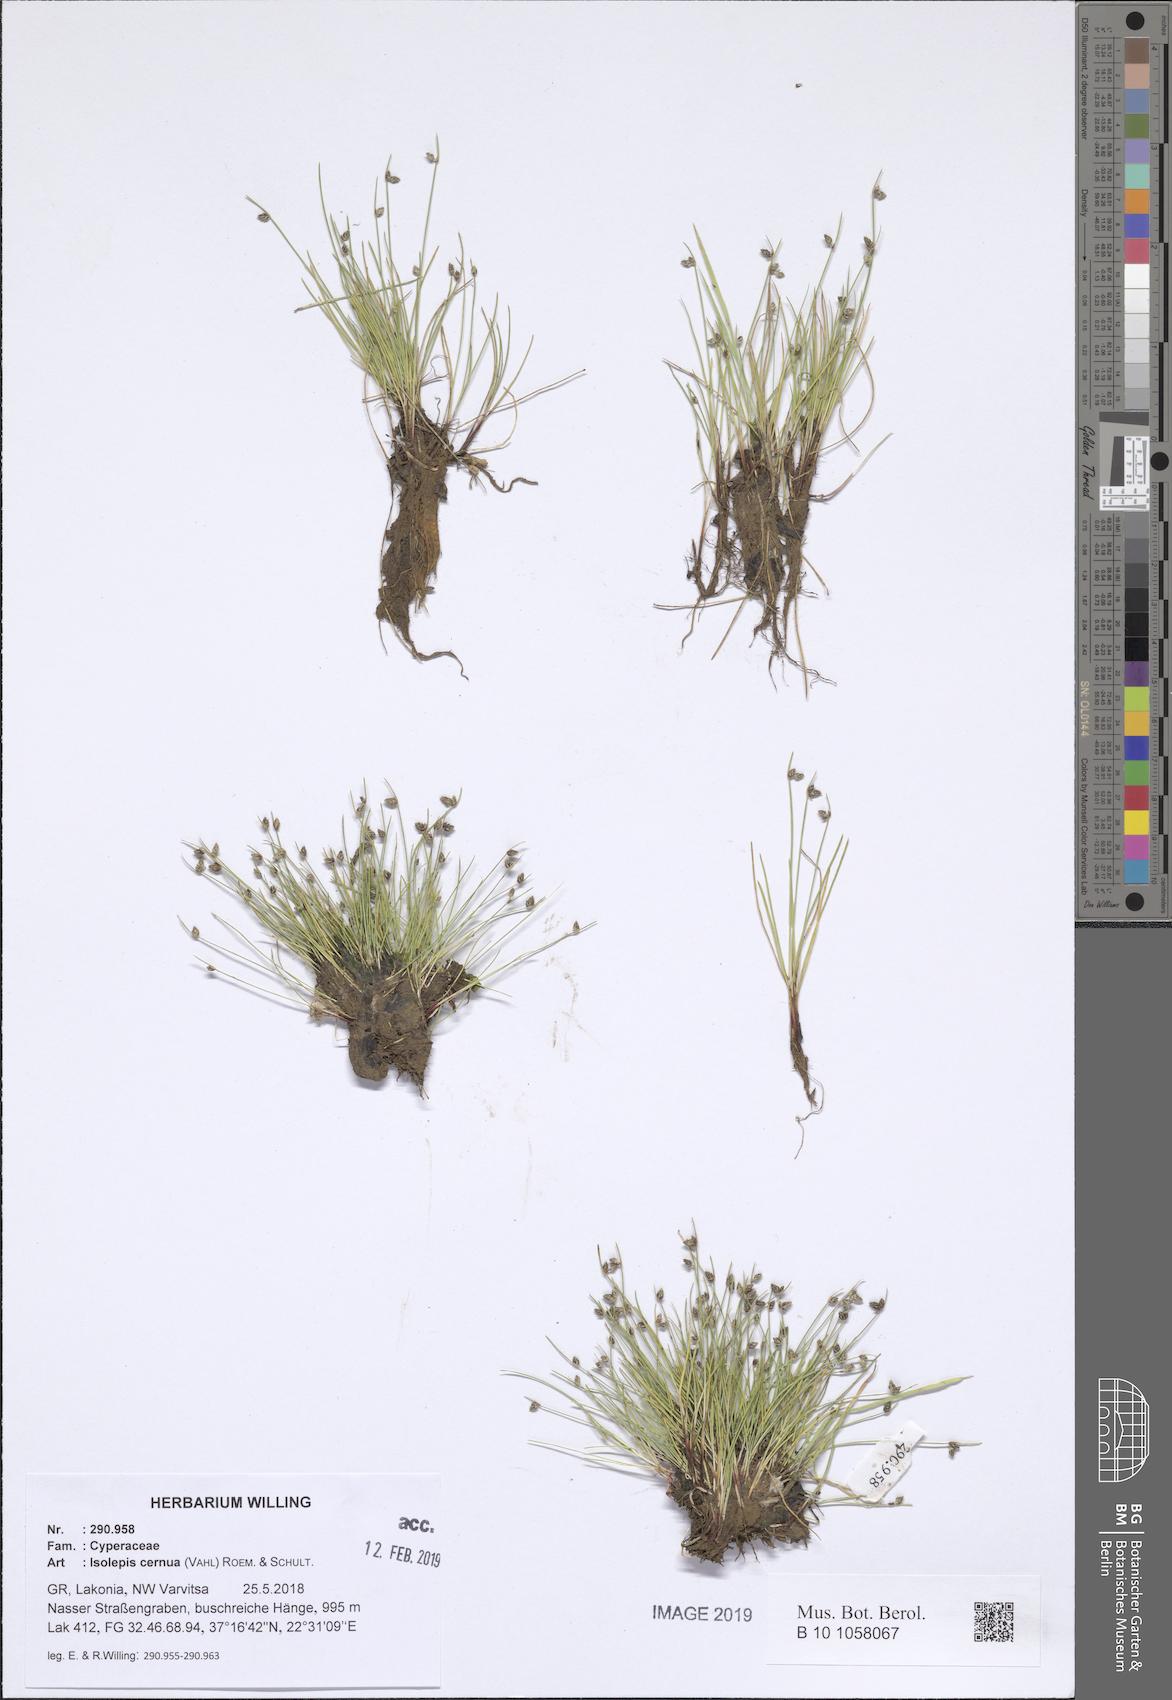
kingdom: Plantae
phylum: Tracheophyta
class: Liliopsida
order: Poales
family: Cyperaceae
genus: Isolepis
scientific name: Isolepis cernua
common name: Slender club-rush
